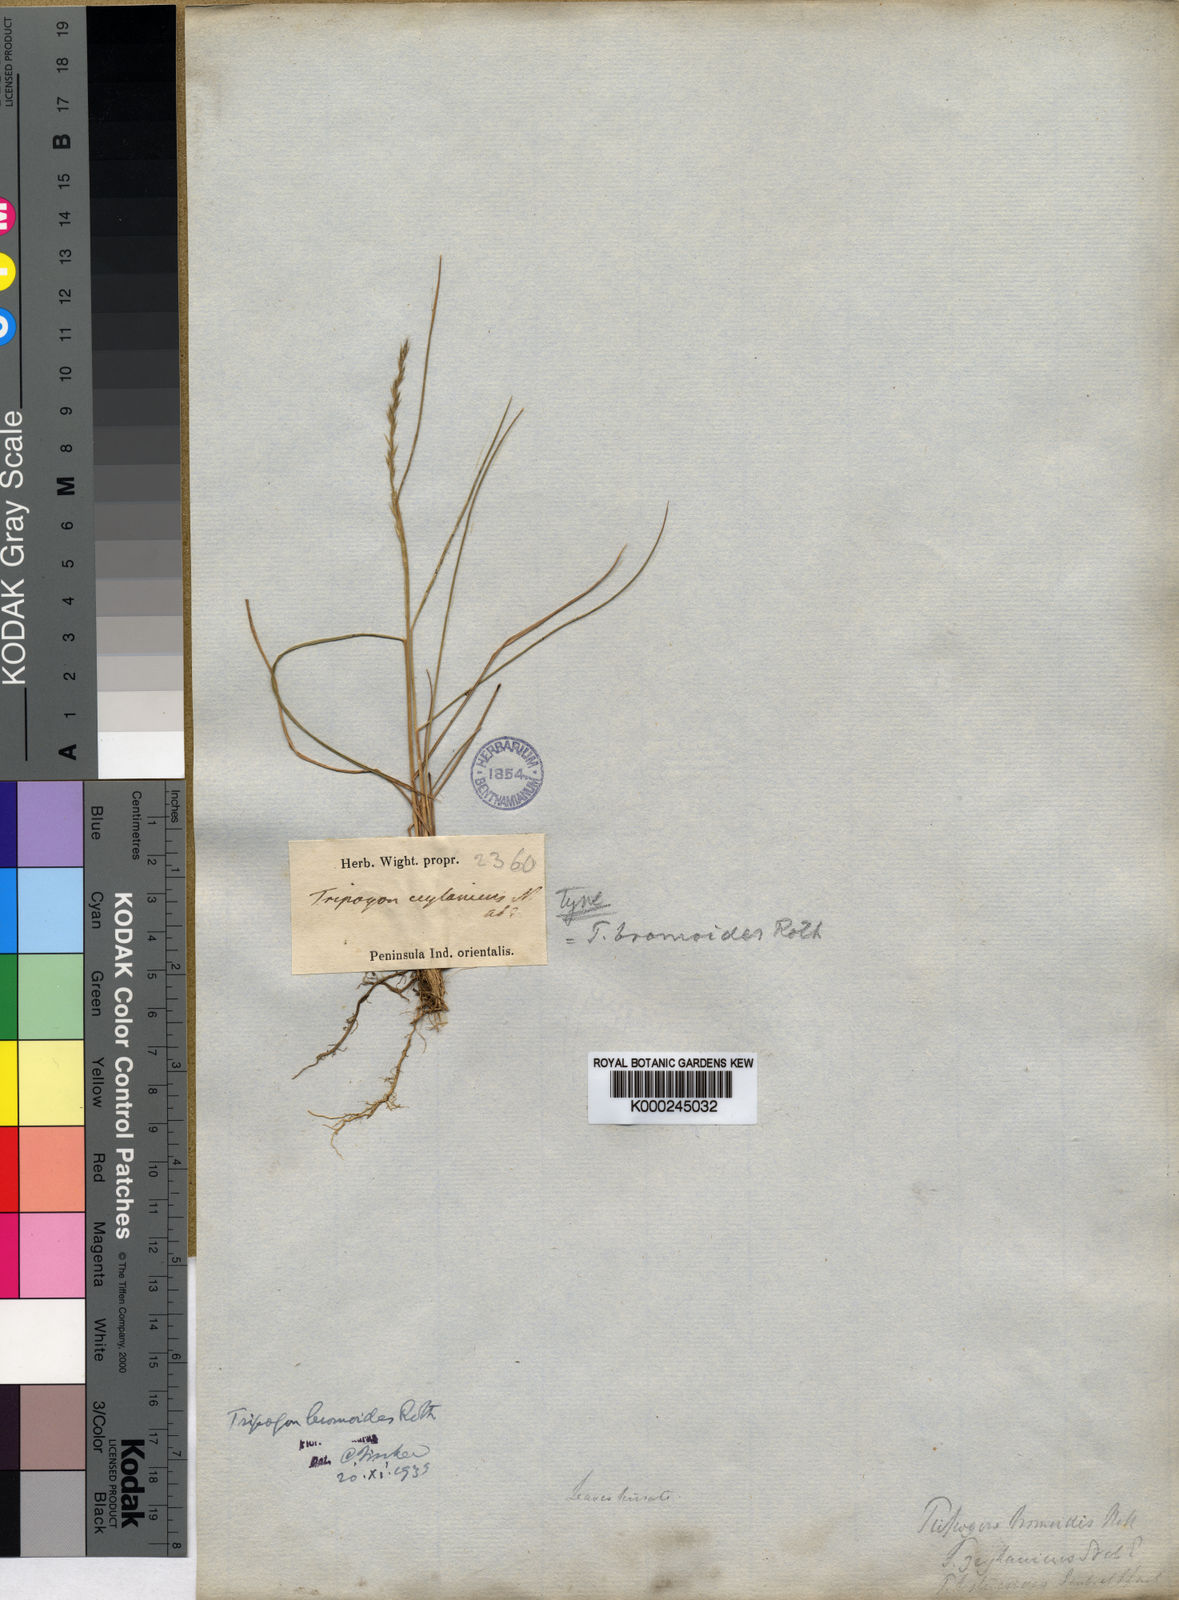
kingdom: Plantae
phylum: Tracheophyta
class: Liliopsida
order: Poales
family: Poaceae
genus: Tripogon
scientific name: Tripogon
